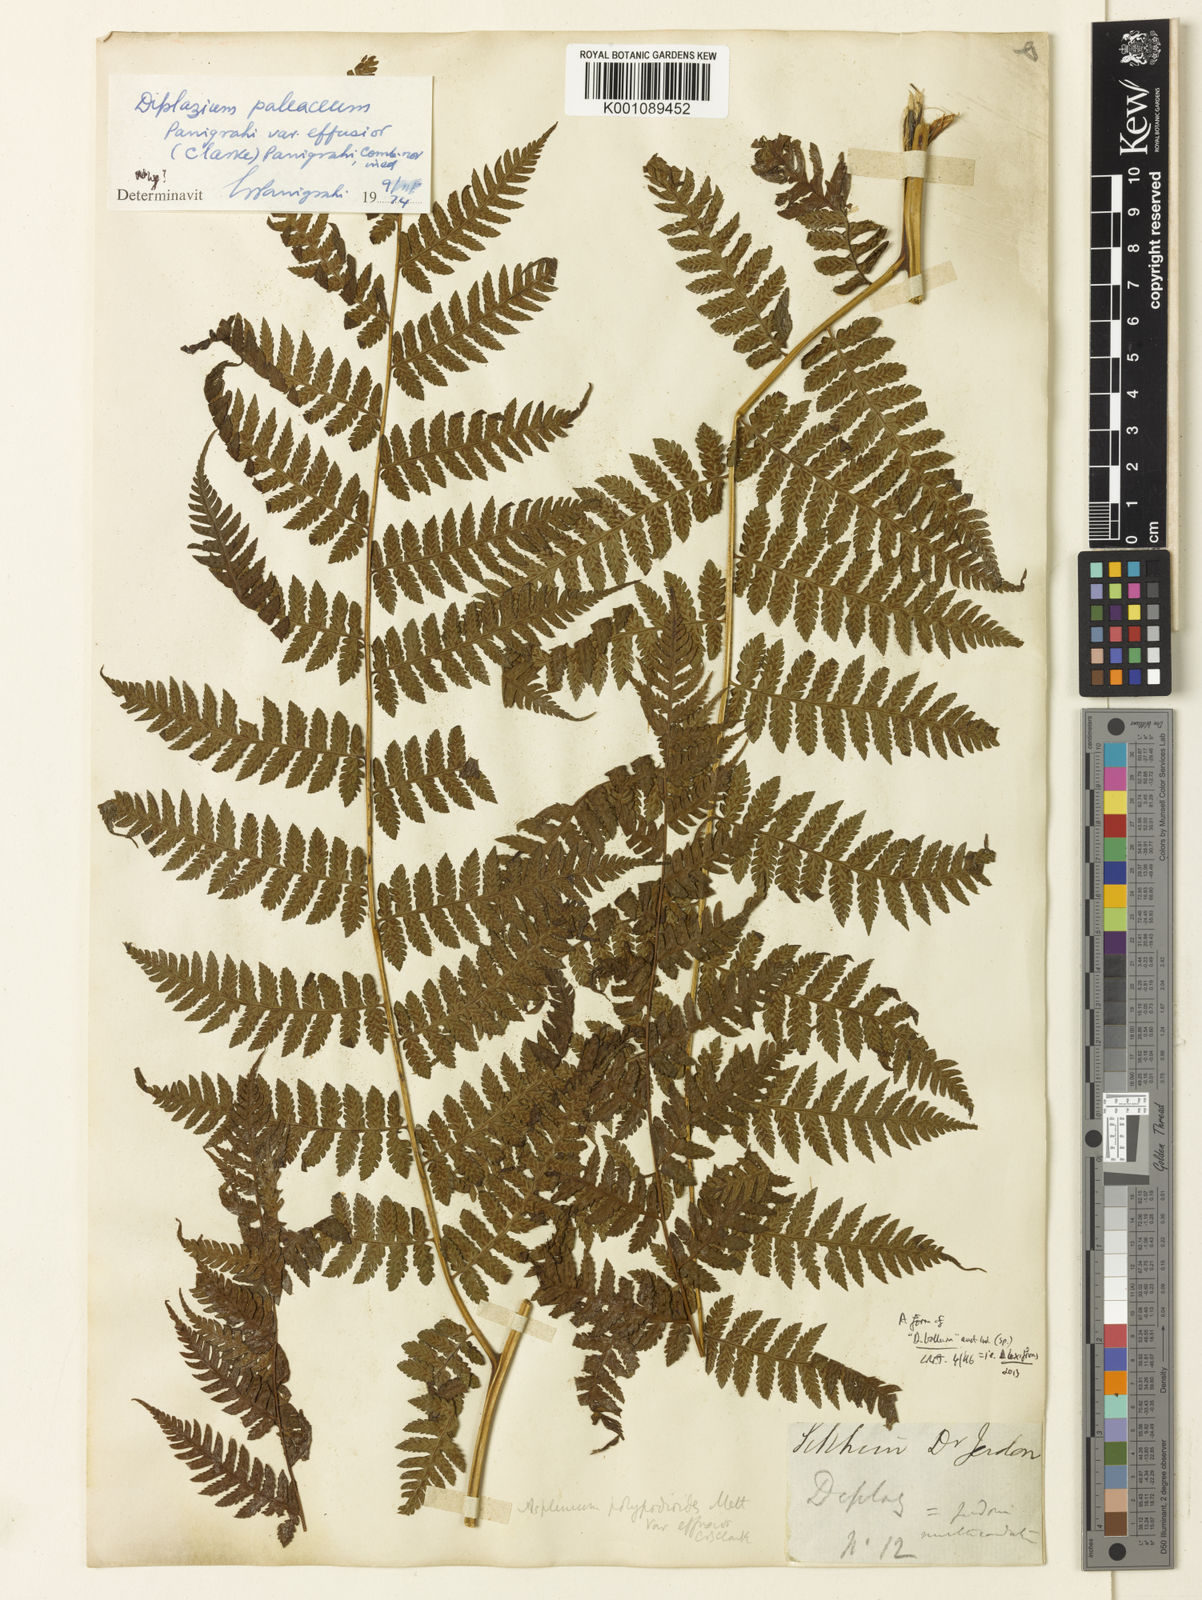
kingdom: Plantae
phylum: Tracheophyta
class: Polypodiopsida
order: Polypodiales
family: Athyriaceae
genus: Diplazium
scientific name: Diplazium polypodioides
